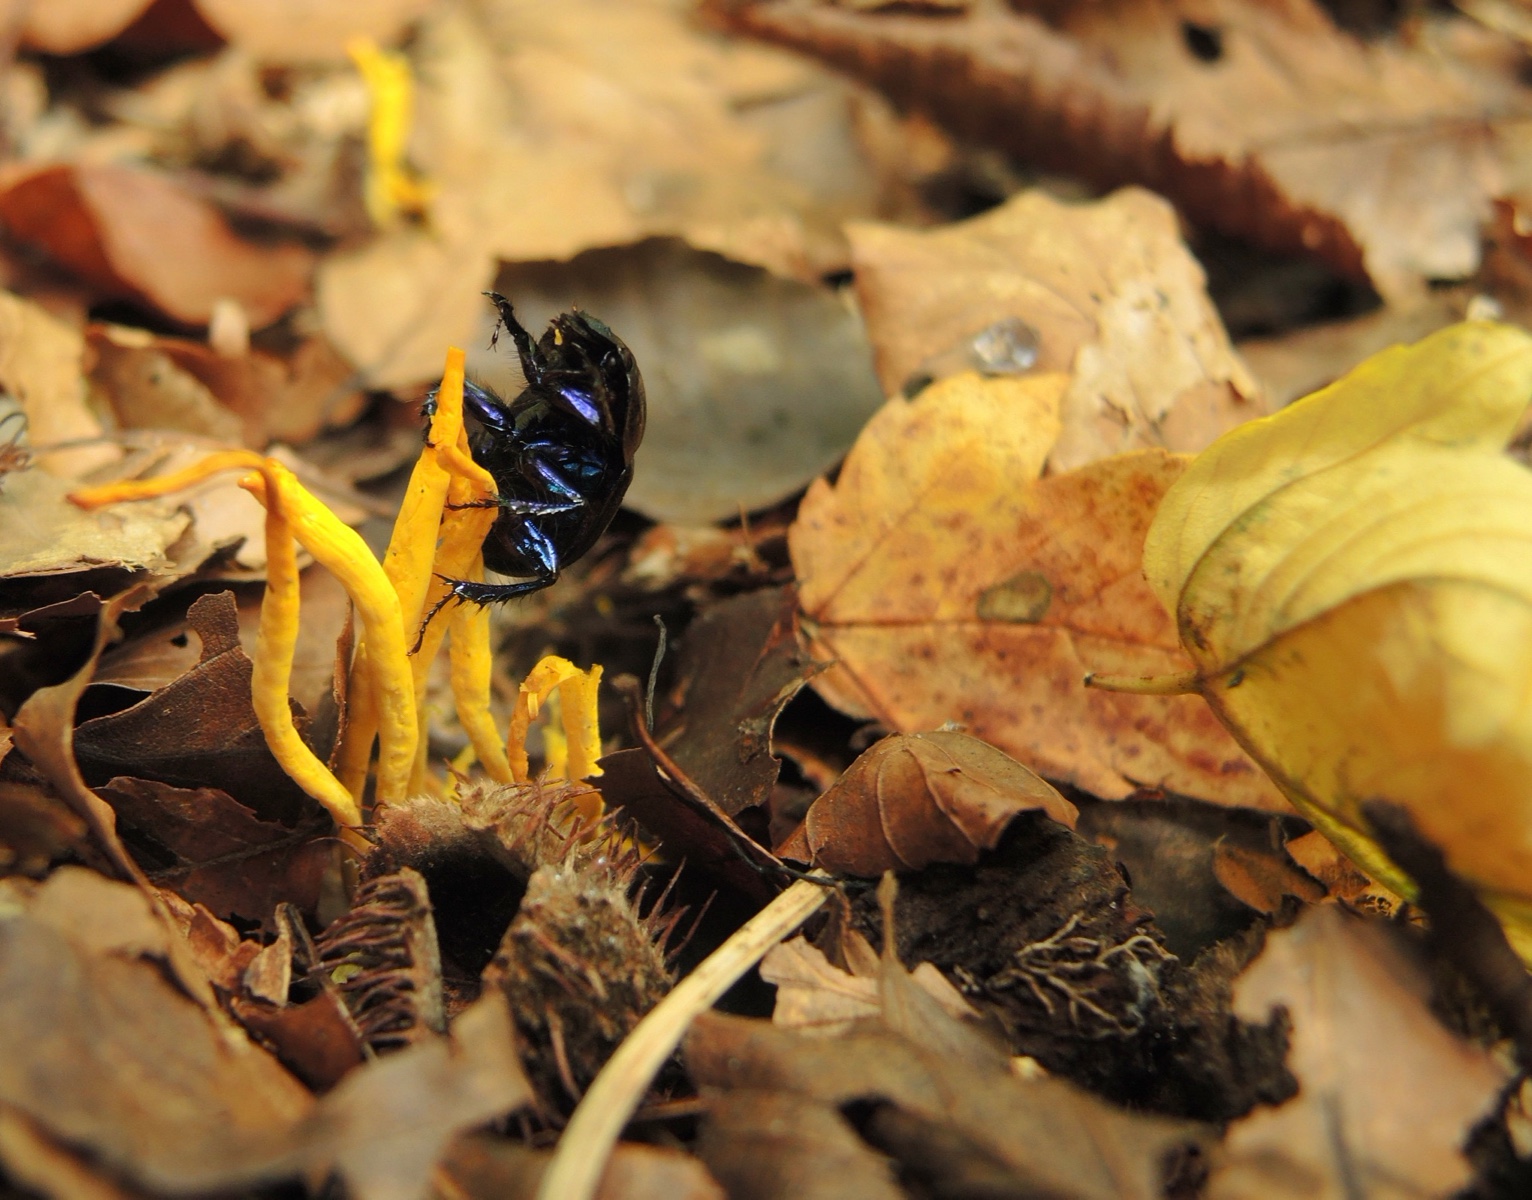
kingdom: Fungi
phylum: Basidiomycota
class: Agaricomycetes
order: Agaricales
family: Clavariaceae
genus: Clavulinopsis
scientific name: Clavulinopsis helvola
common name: orangegul køllesvamp
